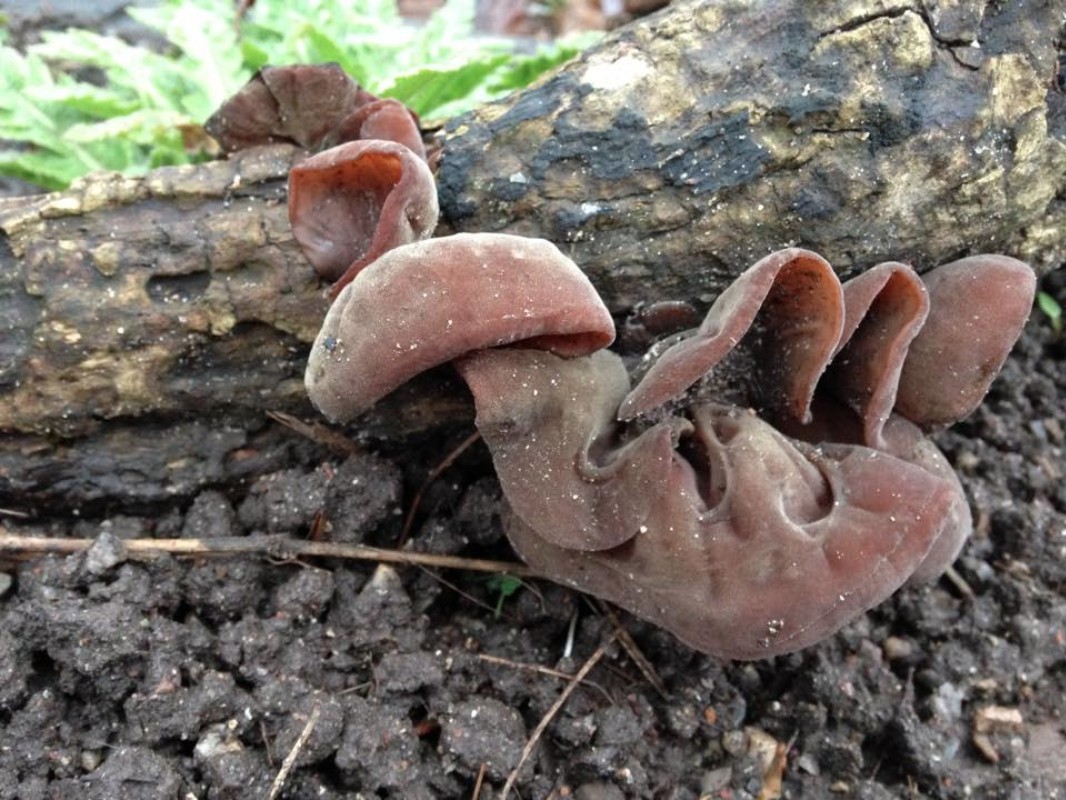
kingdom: Fungi
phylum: Basidiomycota
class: Agaricomycetes
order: Auriculariales
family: Auriculariaceae
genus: Auricularia
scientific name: Auricularia auricula-judae
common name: almindelig judasøre
